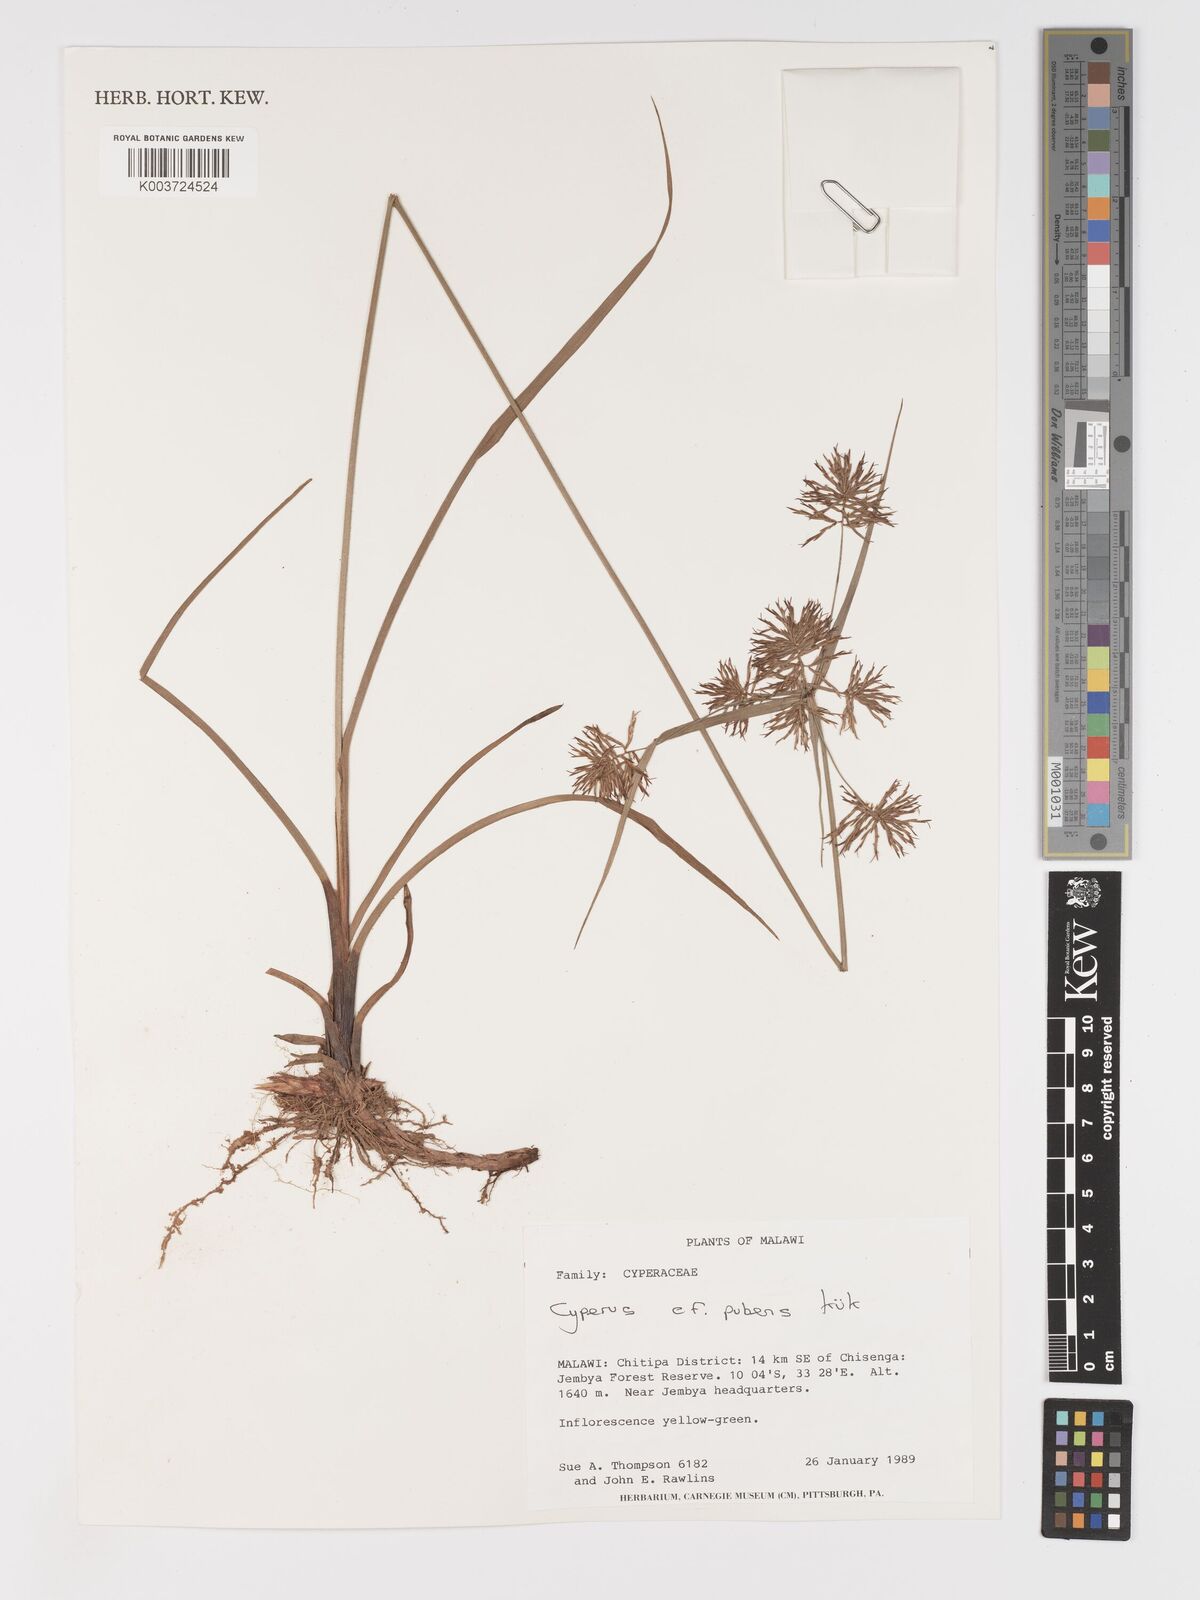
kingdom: Plantae
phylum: Tracheophyta
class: Liliopsida
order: Poales
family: Cyperaceae
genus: Cyperus
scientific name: Cyperus pubens
